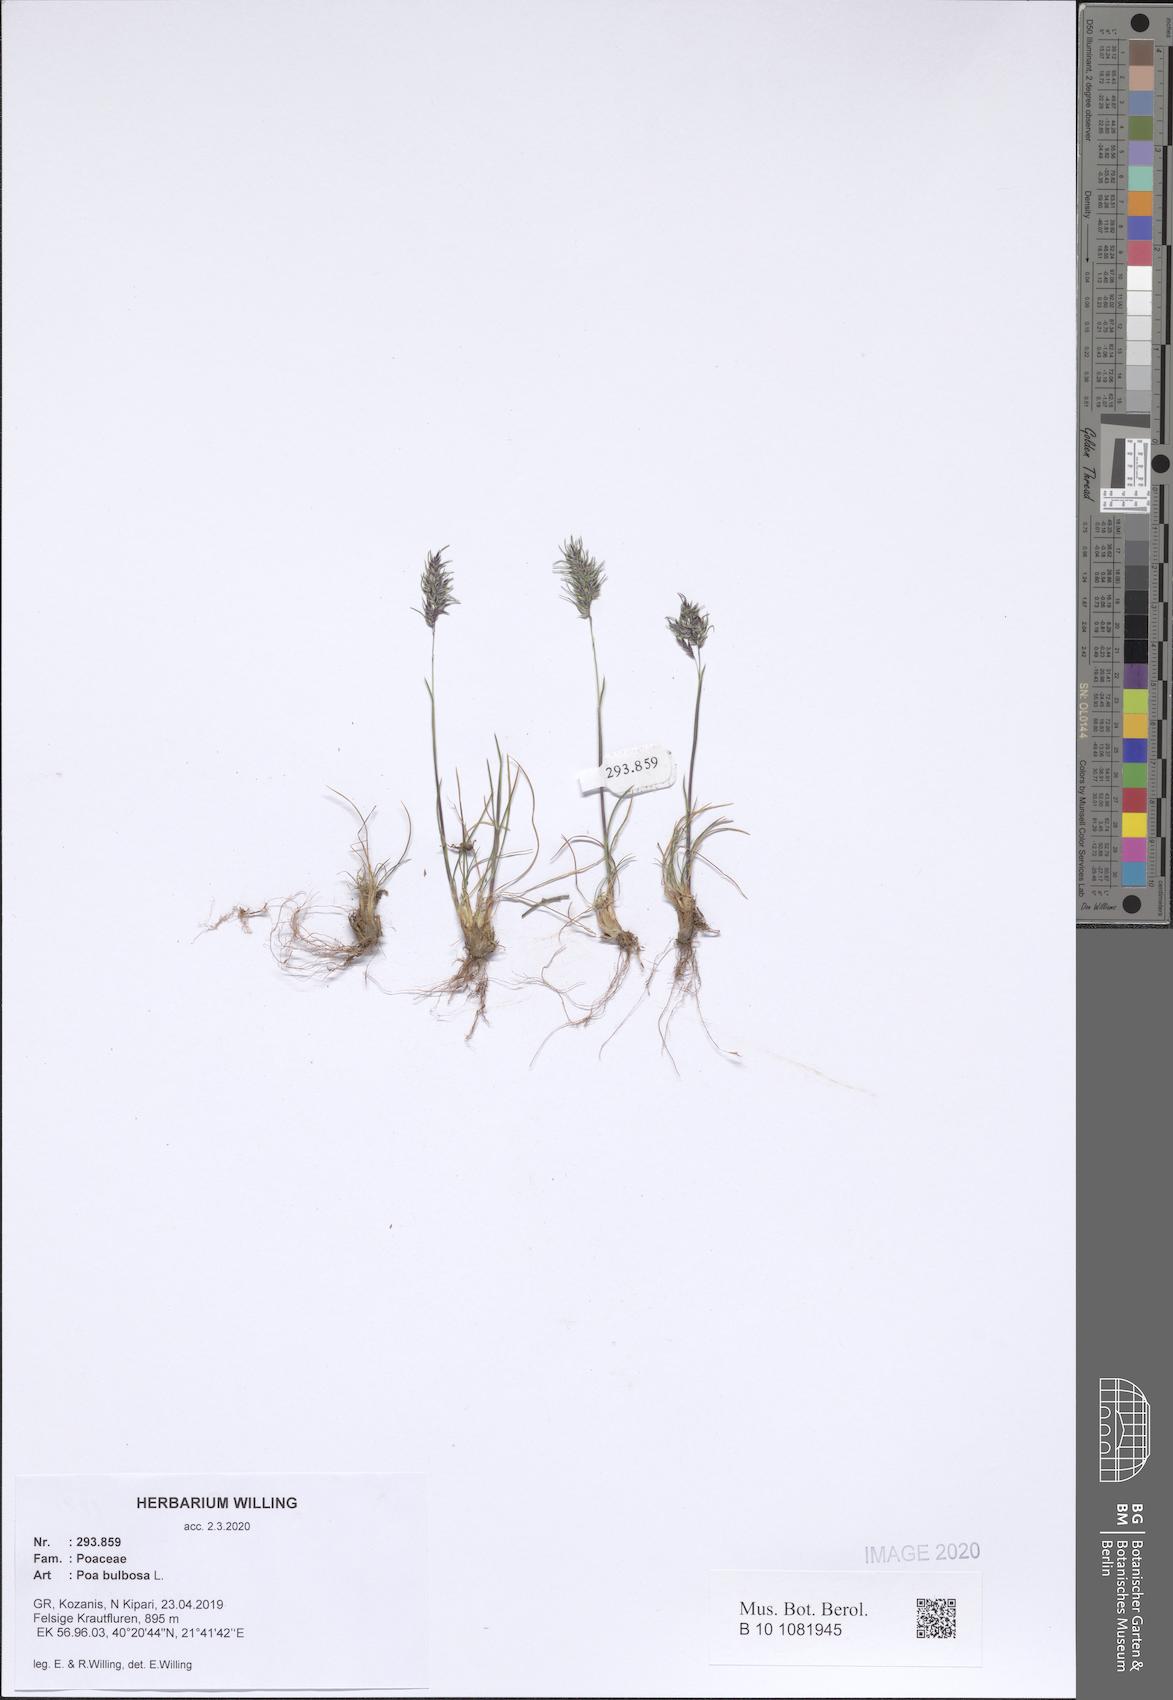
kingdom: Plantae
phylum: Tracheophyta
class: Liliopsida
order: Poales
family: Poaceae
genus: Poa
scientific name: Poa bulbosa
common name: Bulbous bluegrass
